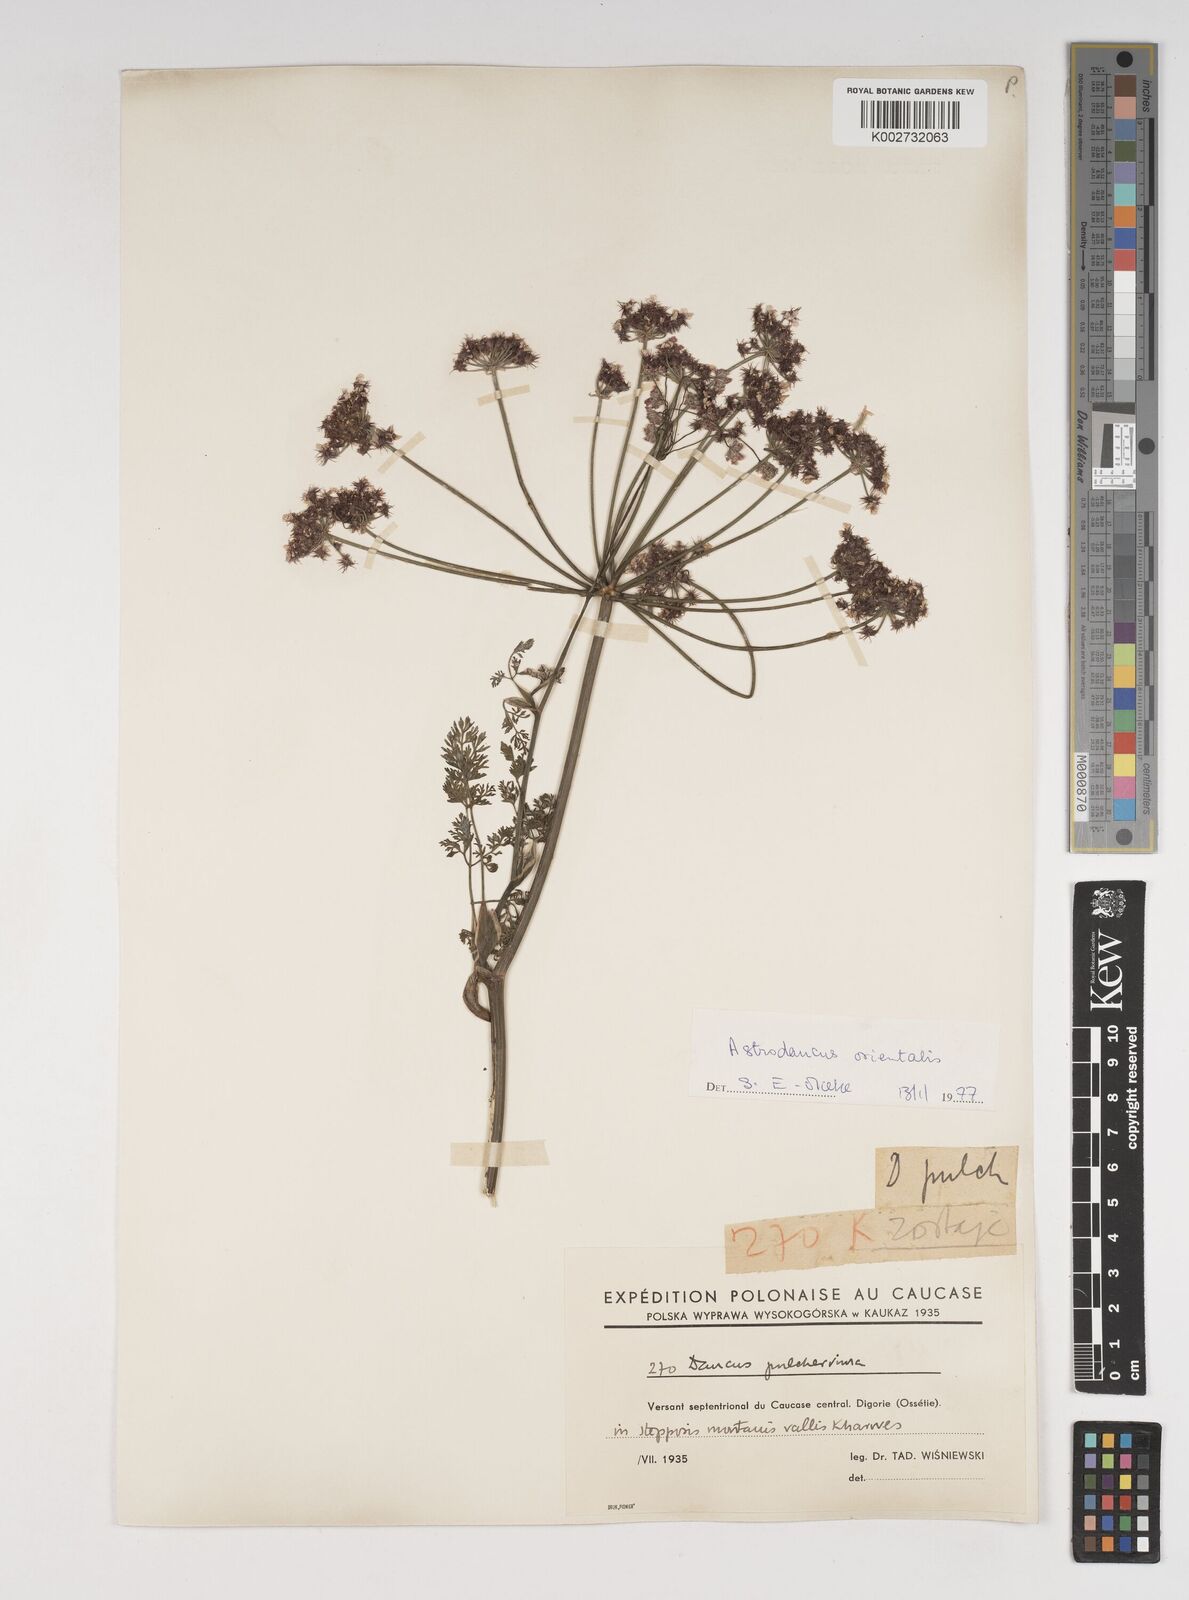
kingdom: Plantae
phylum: Tracheophyta
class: Magnoliopsida
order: Apiales
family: Apiaceae
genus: Astrodaucus
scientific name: Astrodaucus orientalis
